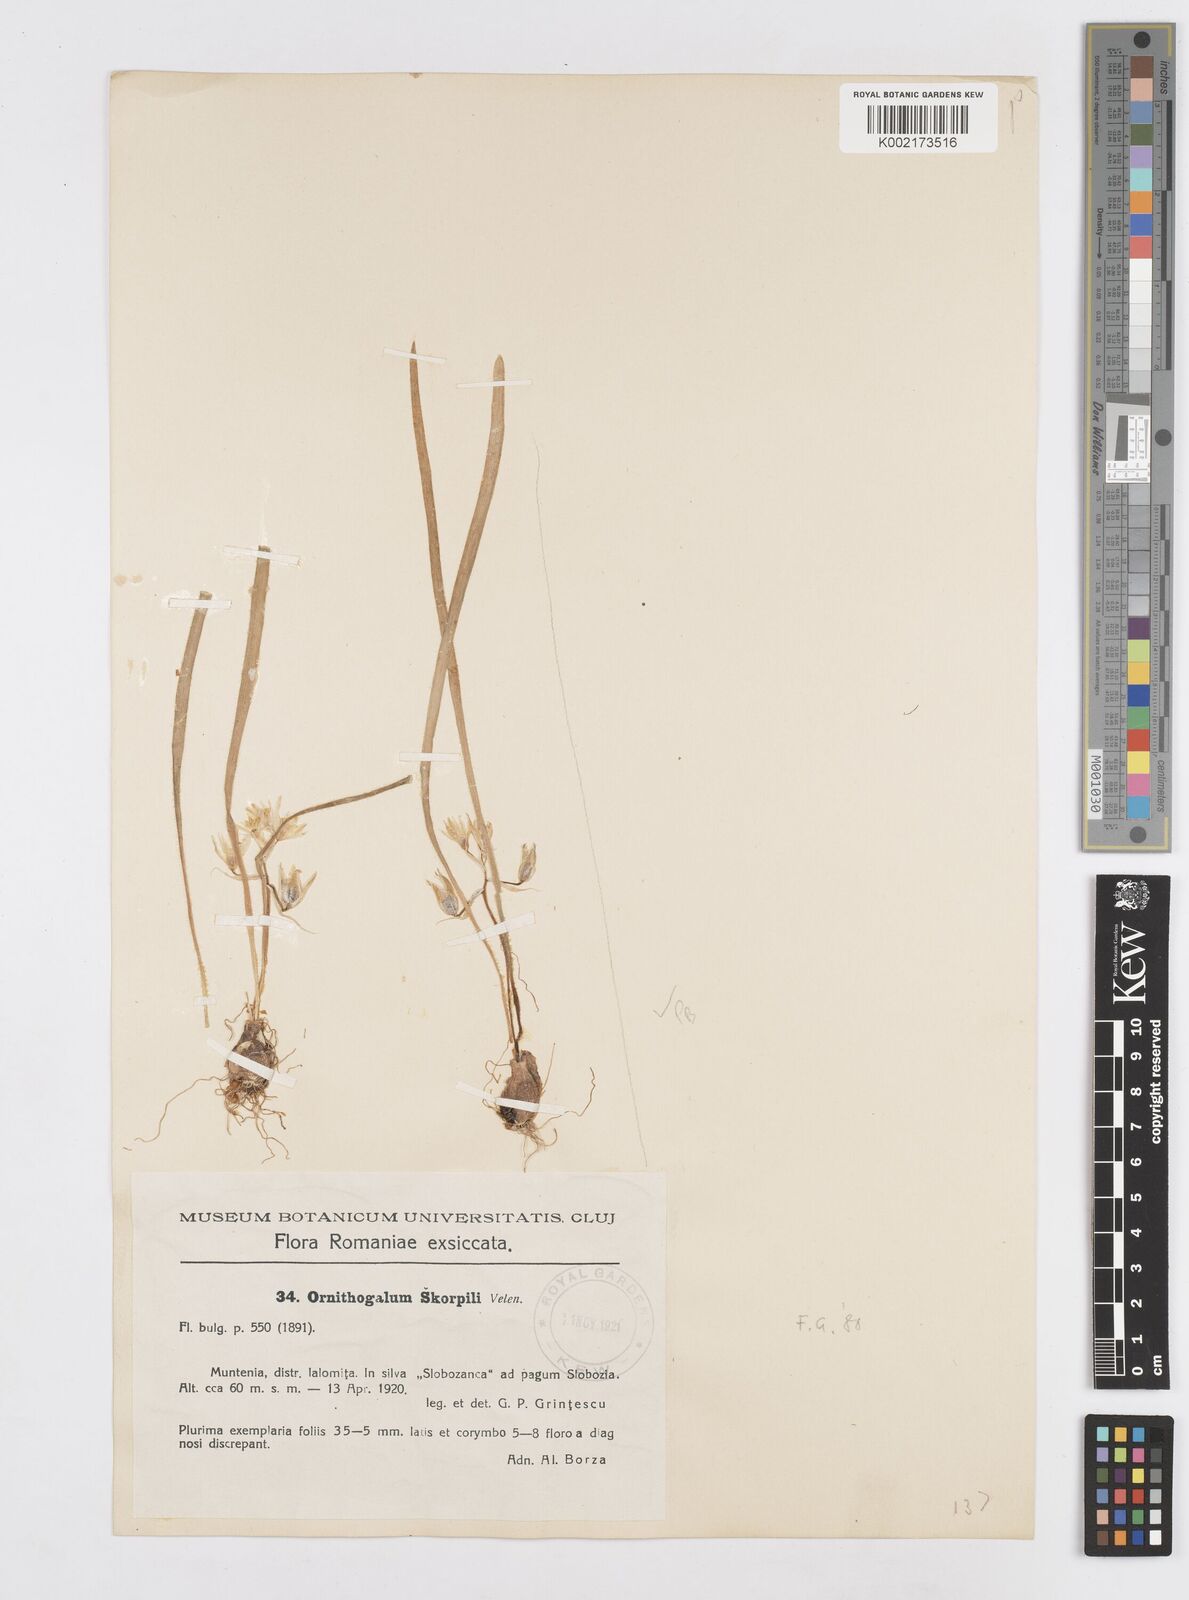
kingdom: Plantae
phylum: Tracheophyta
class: Liliopsida
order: Asparagales
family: Asparagaceae
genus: Ornithogalum
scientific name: Ornithogalum fimbriatum
